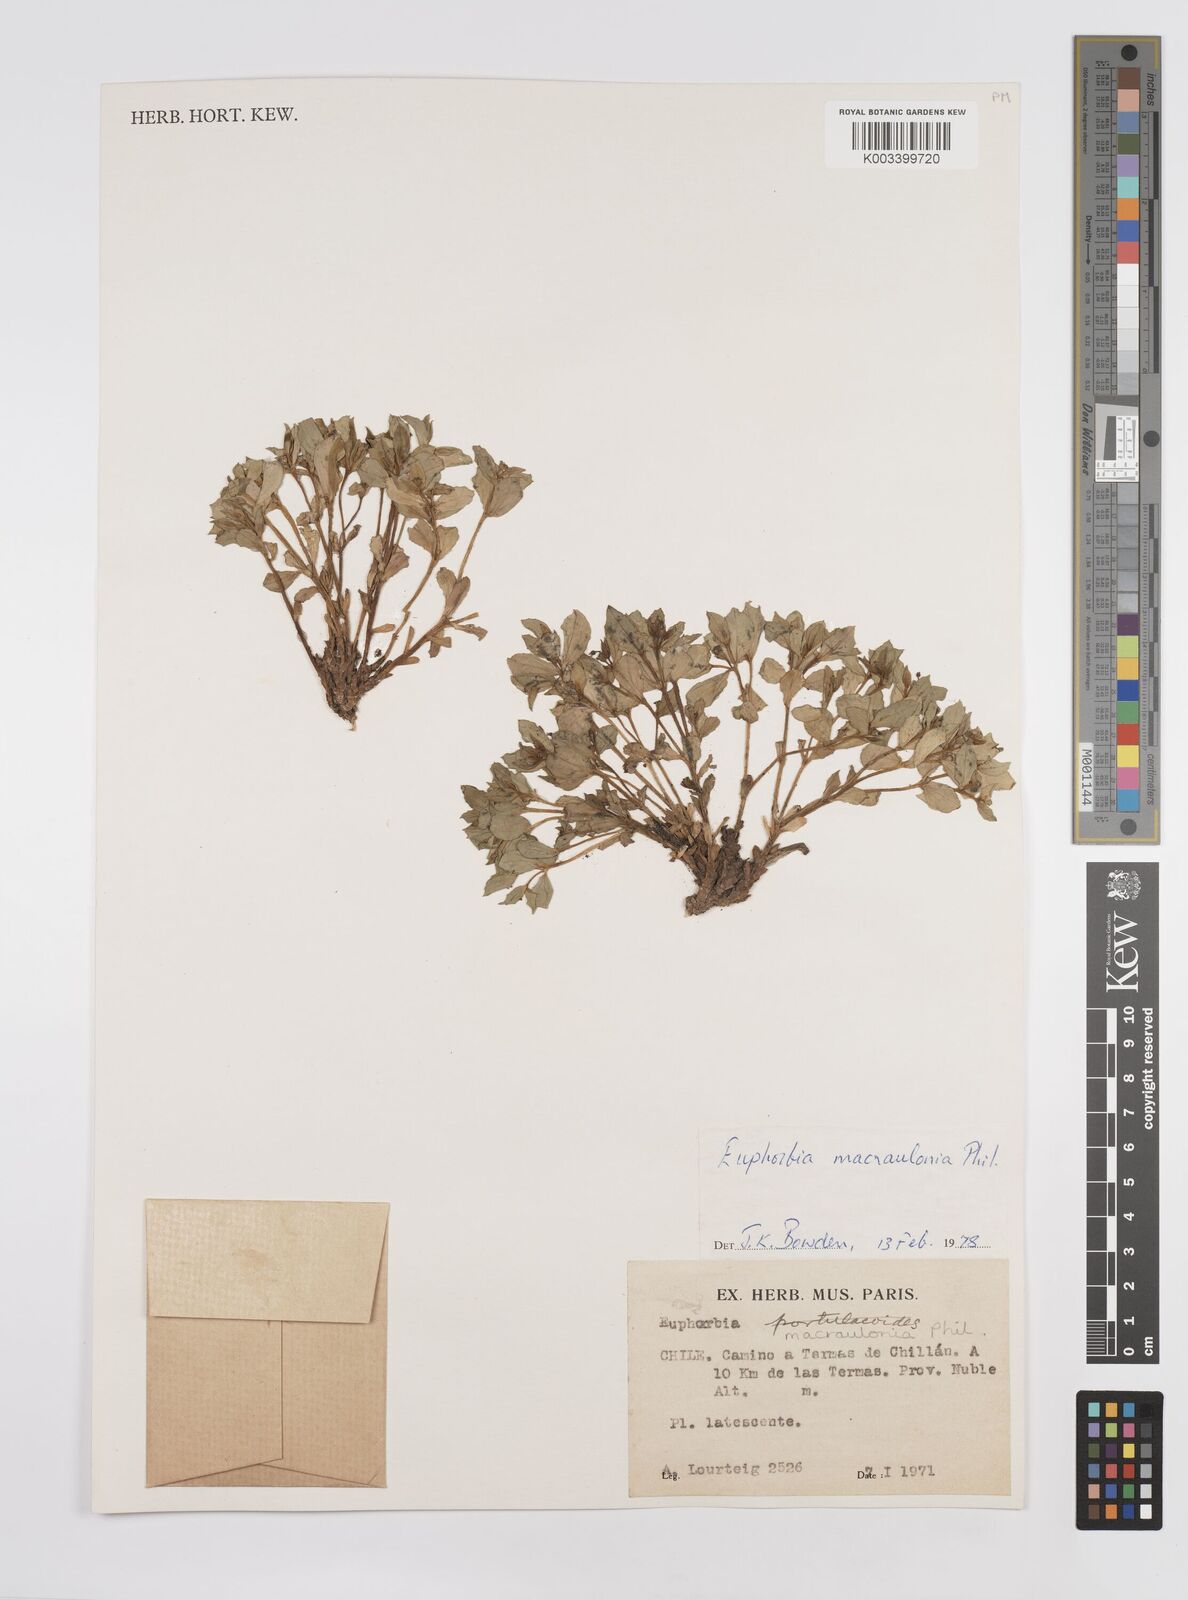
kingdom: Plantae
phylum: Tracheophyta
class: Magnoliopsida
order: Malpighiales
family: Euphorbiaceae
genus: Euphorbia
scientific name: Euphorbia macraulonia
